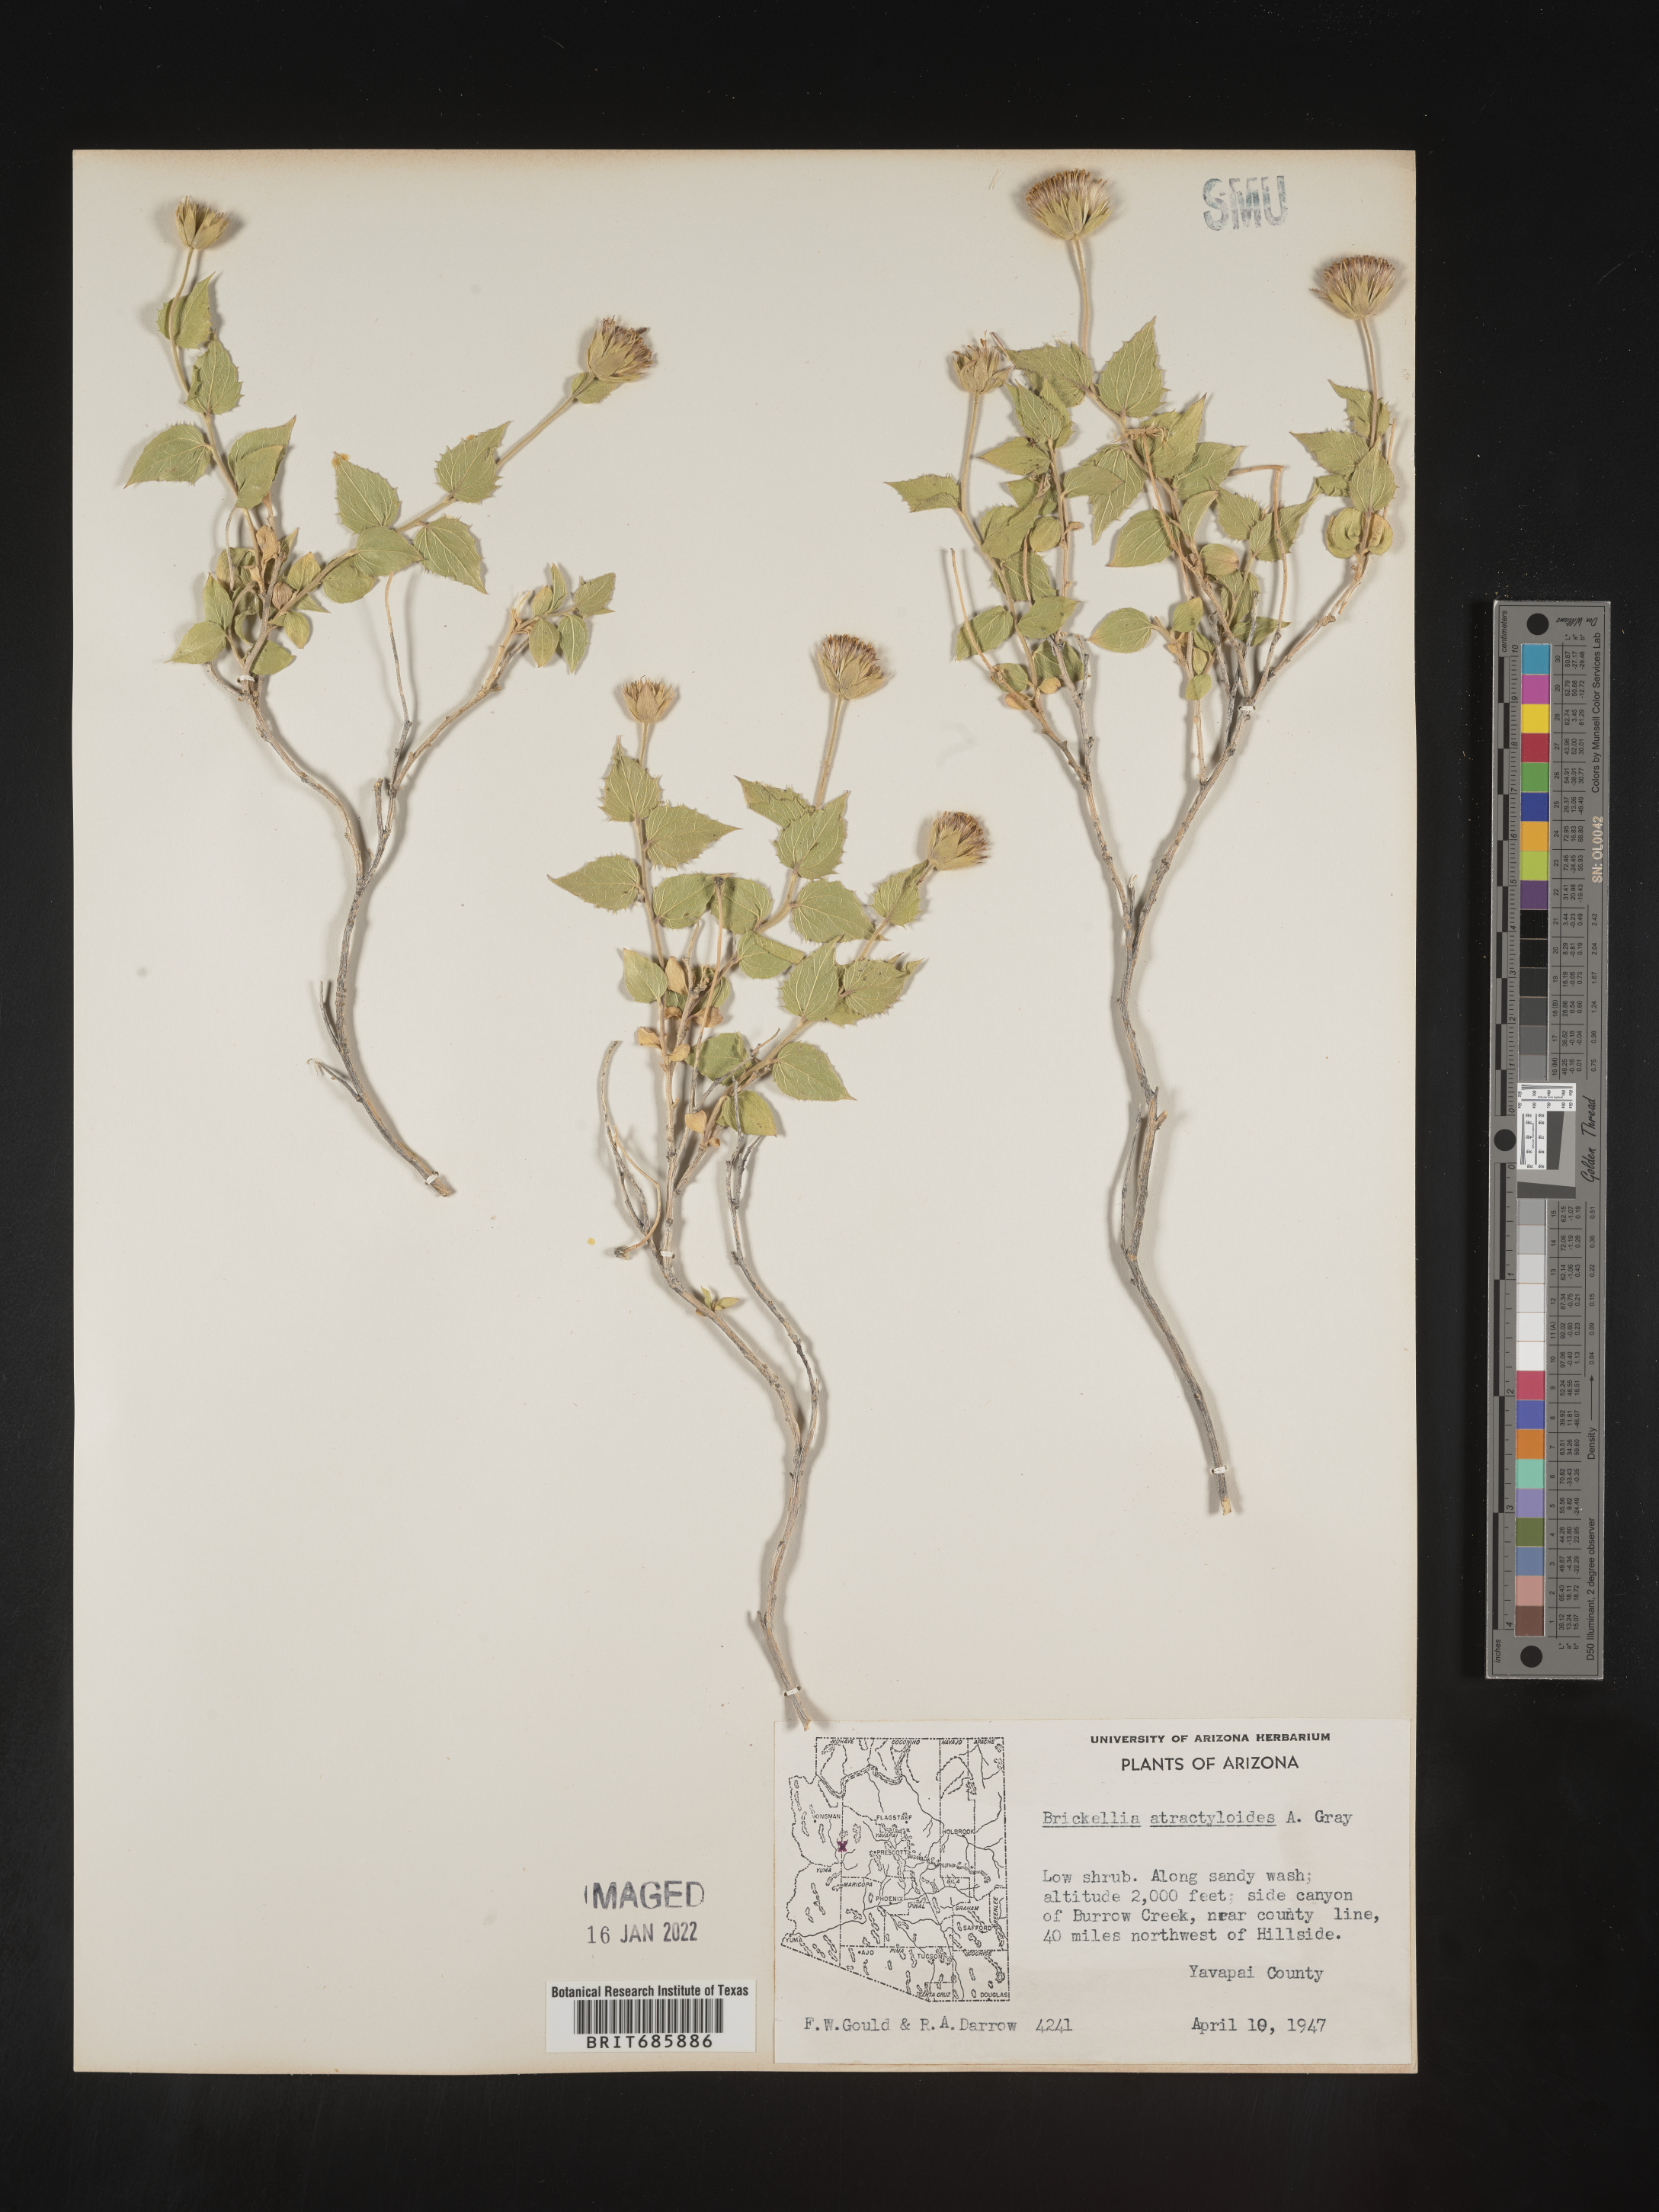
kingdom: Plantae
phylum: Tracheophyta
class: Magnoliopsida
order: Asterales
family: Asteraceae
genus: Brickellia
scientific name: Brickellia atractyloides
